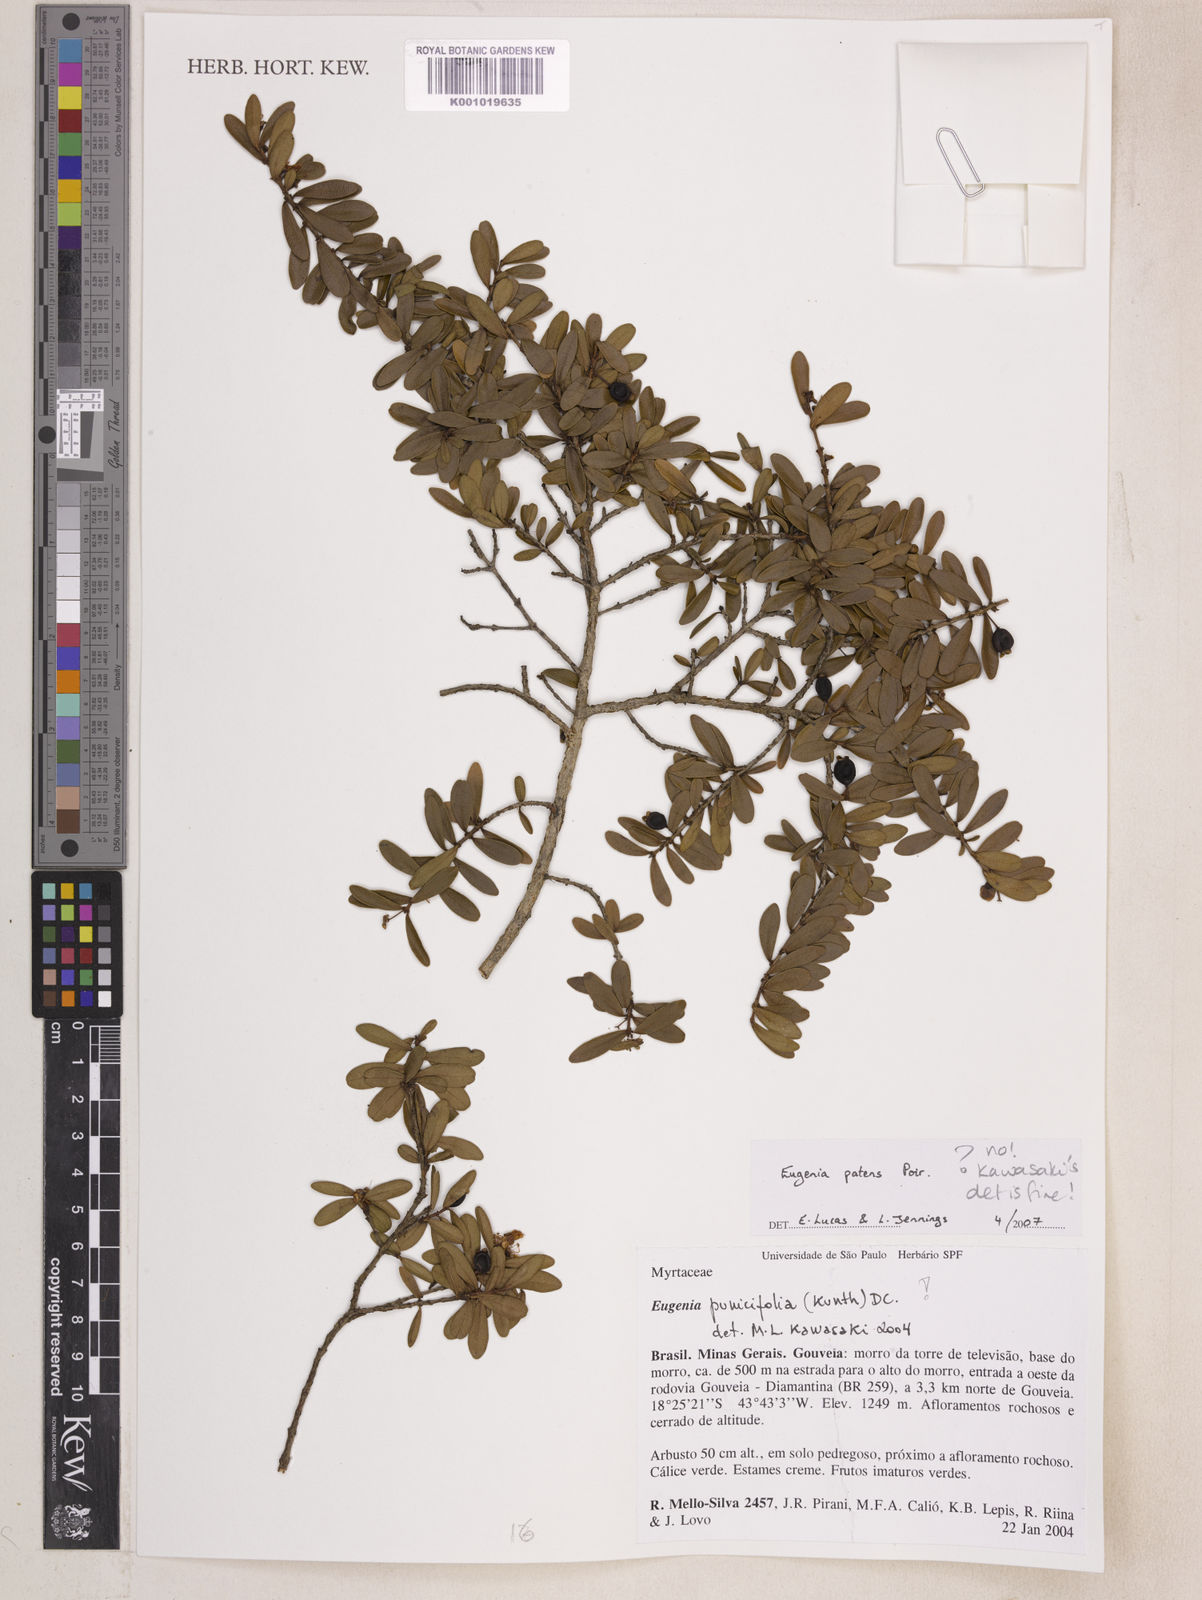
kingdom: Plantae
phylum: Tracheophyta
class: Magnoliopsida
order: Myrtales
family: Myrtaceae
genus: Eugenia
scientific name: Eugenia punicifolia
